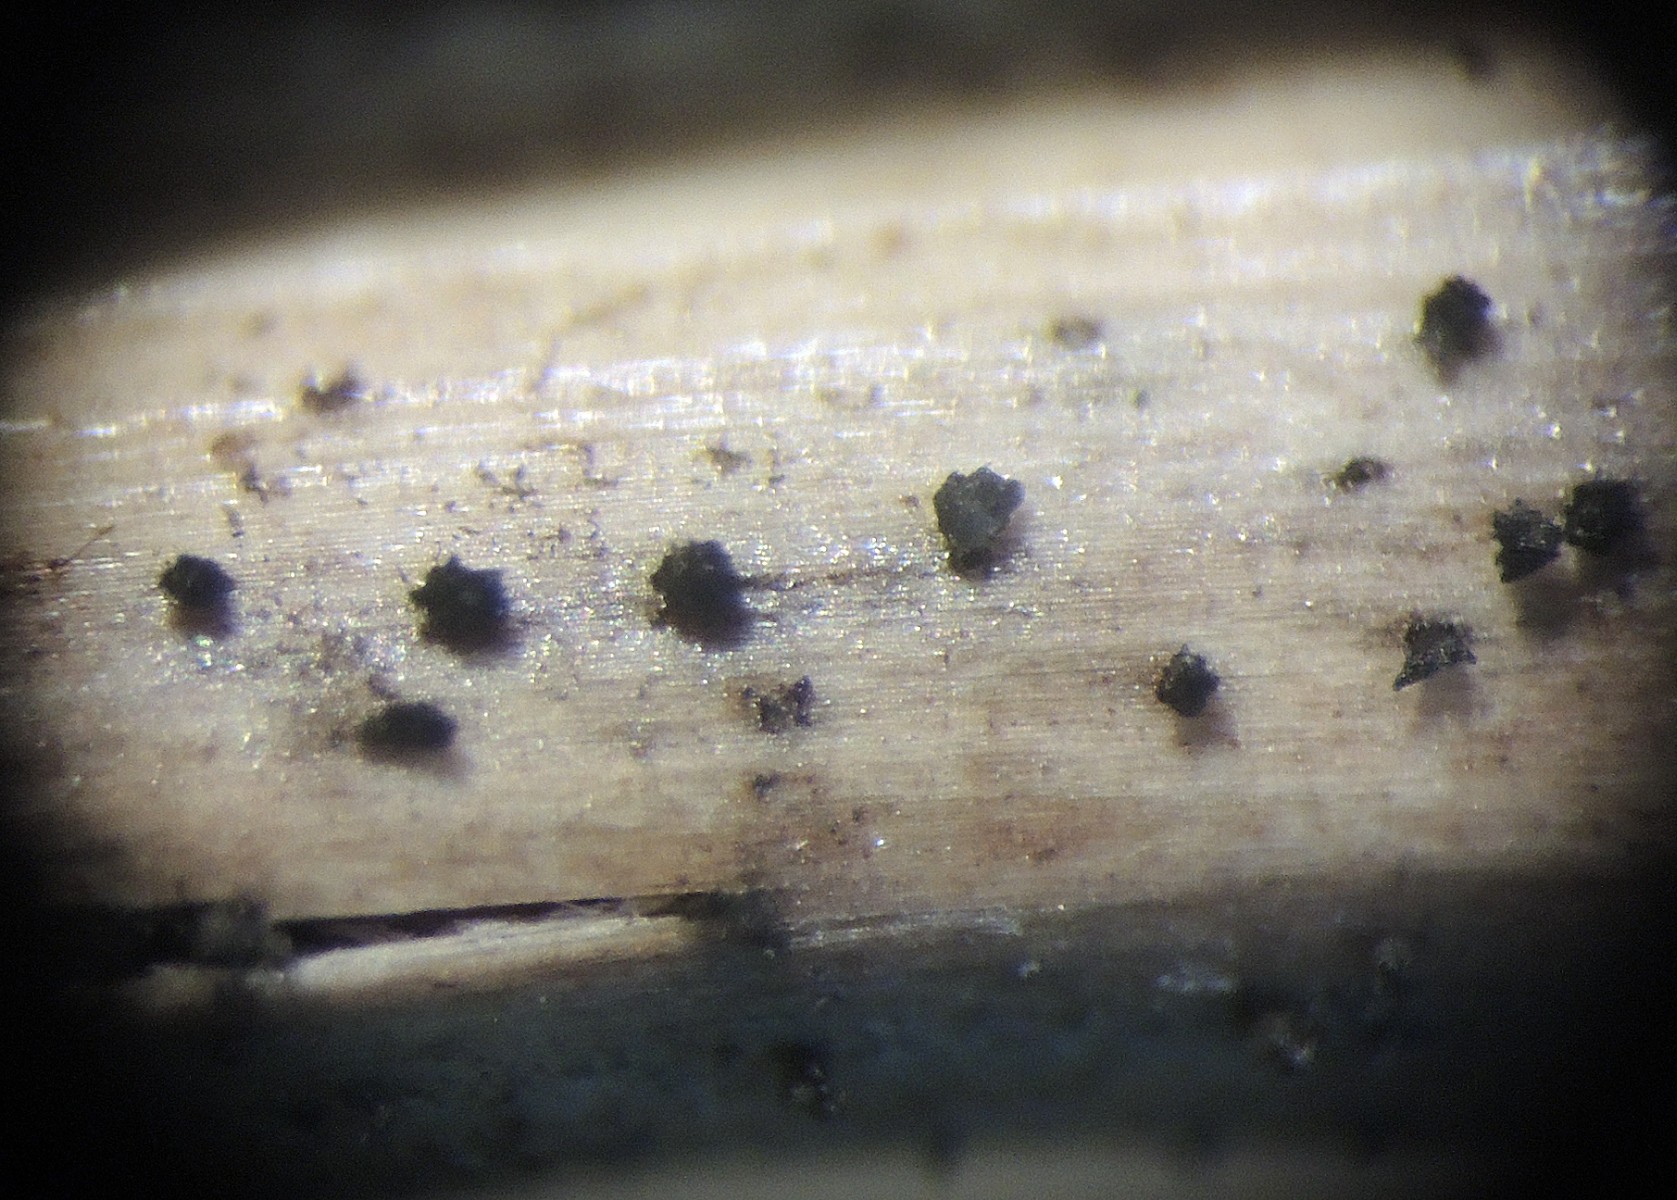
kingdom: Fungi
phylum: Ascomycota
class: Dothideomycetes
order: Pleosporales
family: Lophiostomataceae
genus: Lophiostoma
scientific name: Lophiostoma vagabundum
